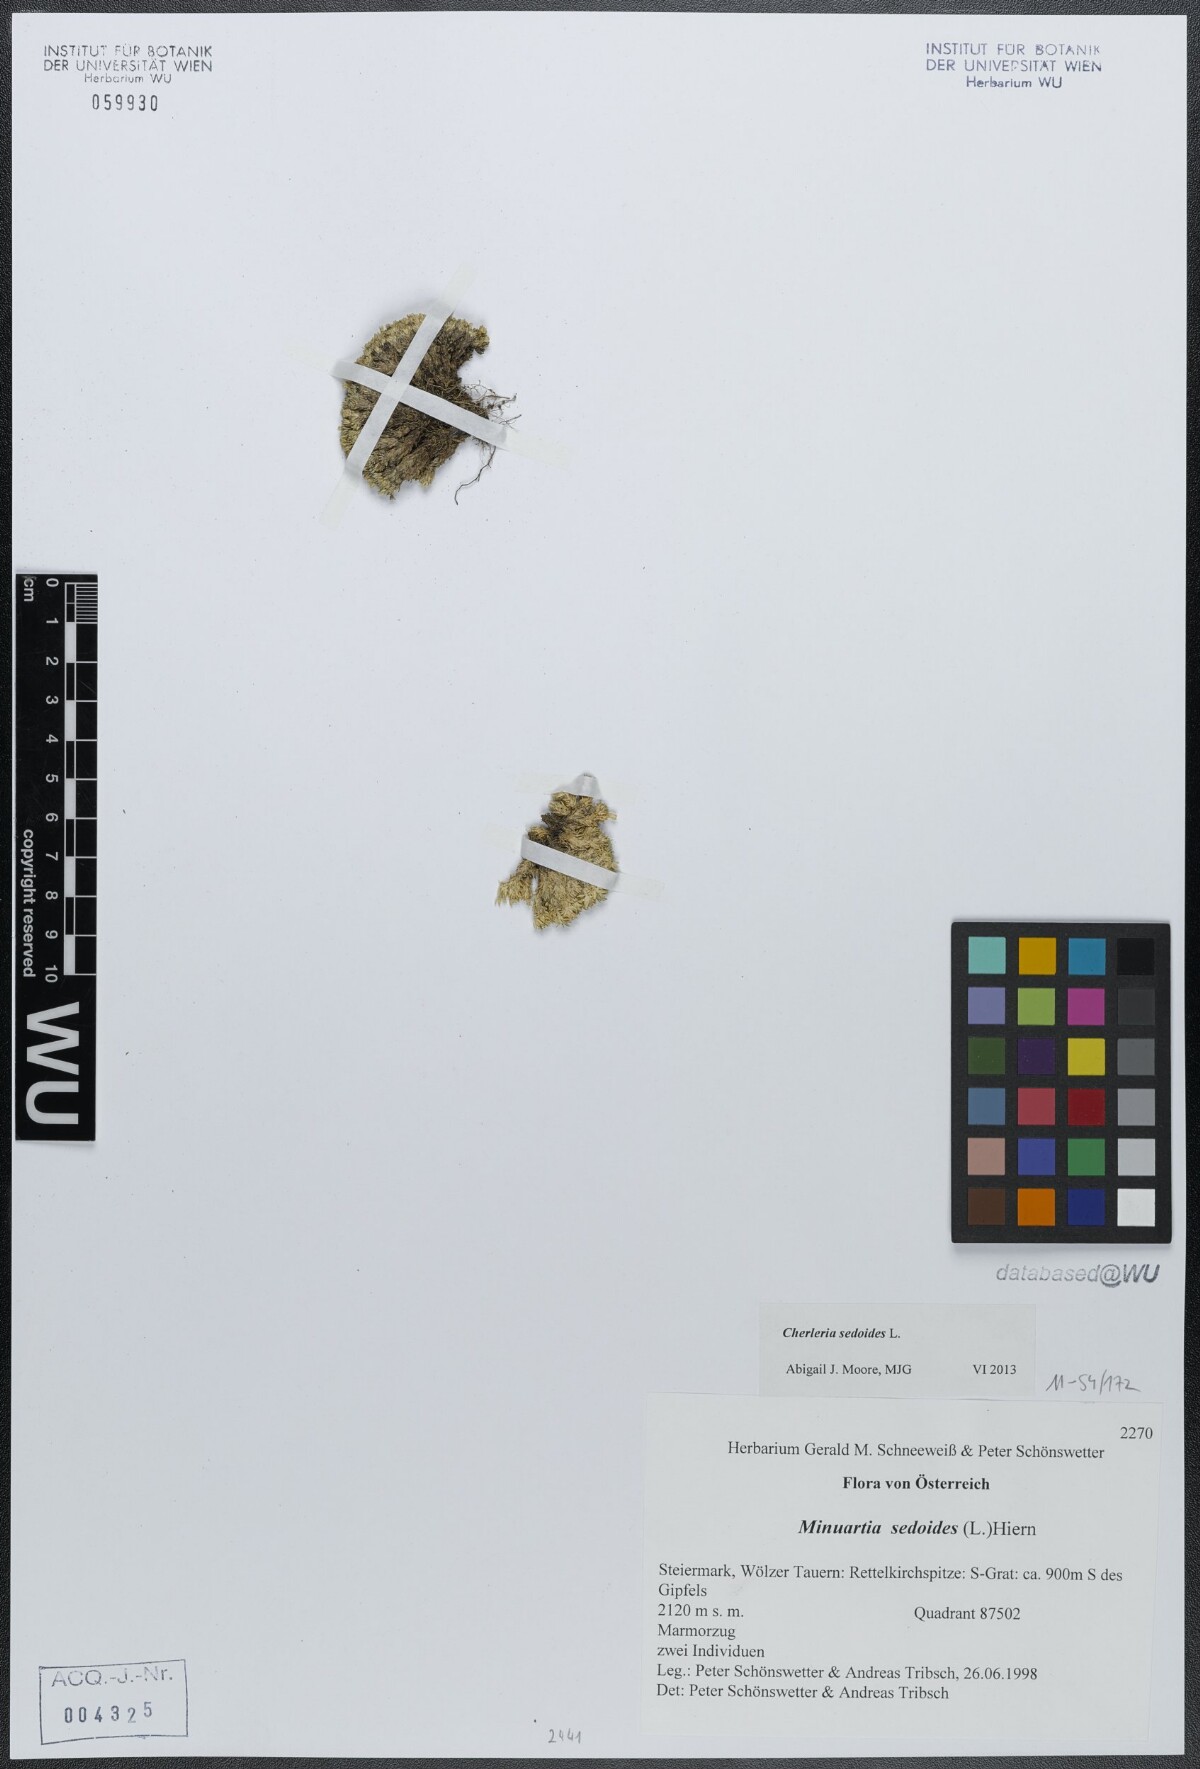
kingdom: Plantae
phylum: Tracheophyta
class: Magnoliopsida
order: Caryophyllales
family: Caryophyllaceae
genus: Cherleria
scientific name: Cherleria sedoides
